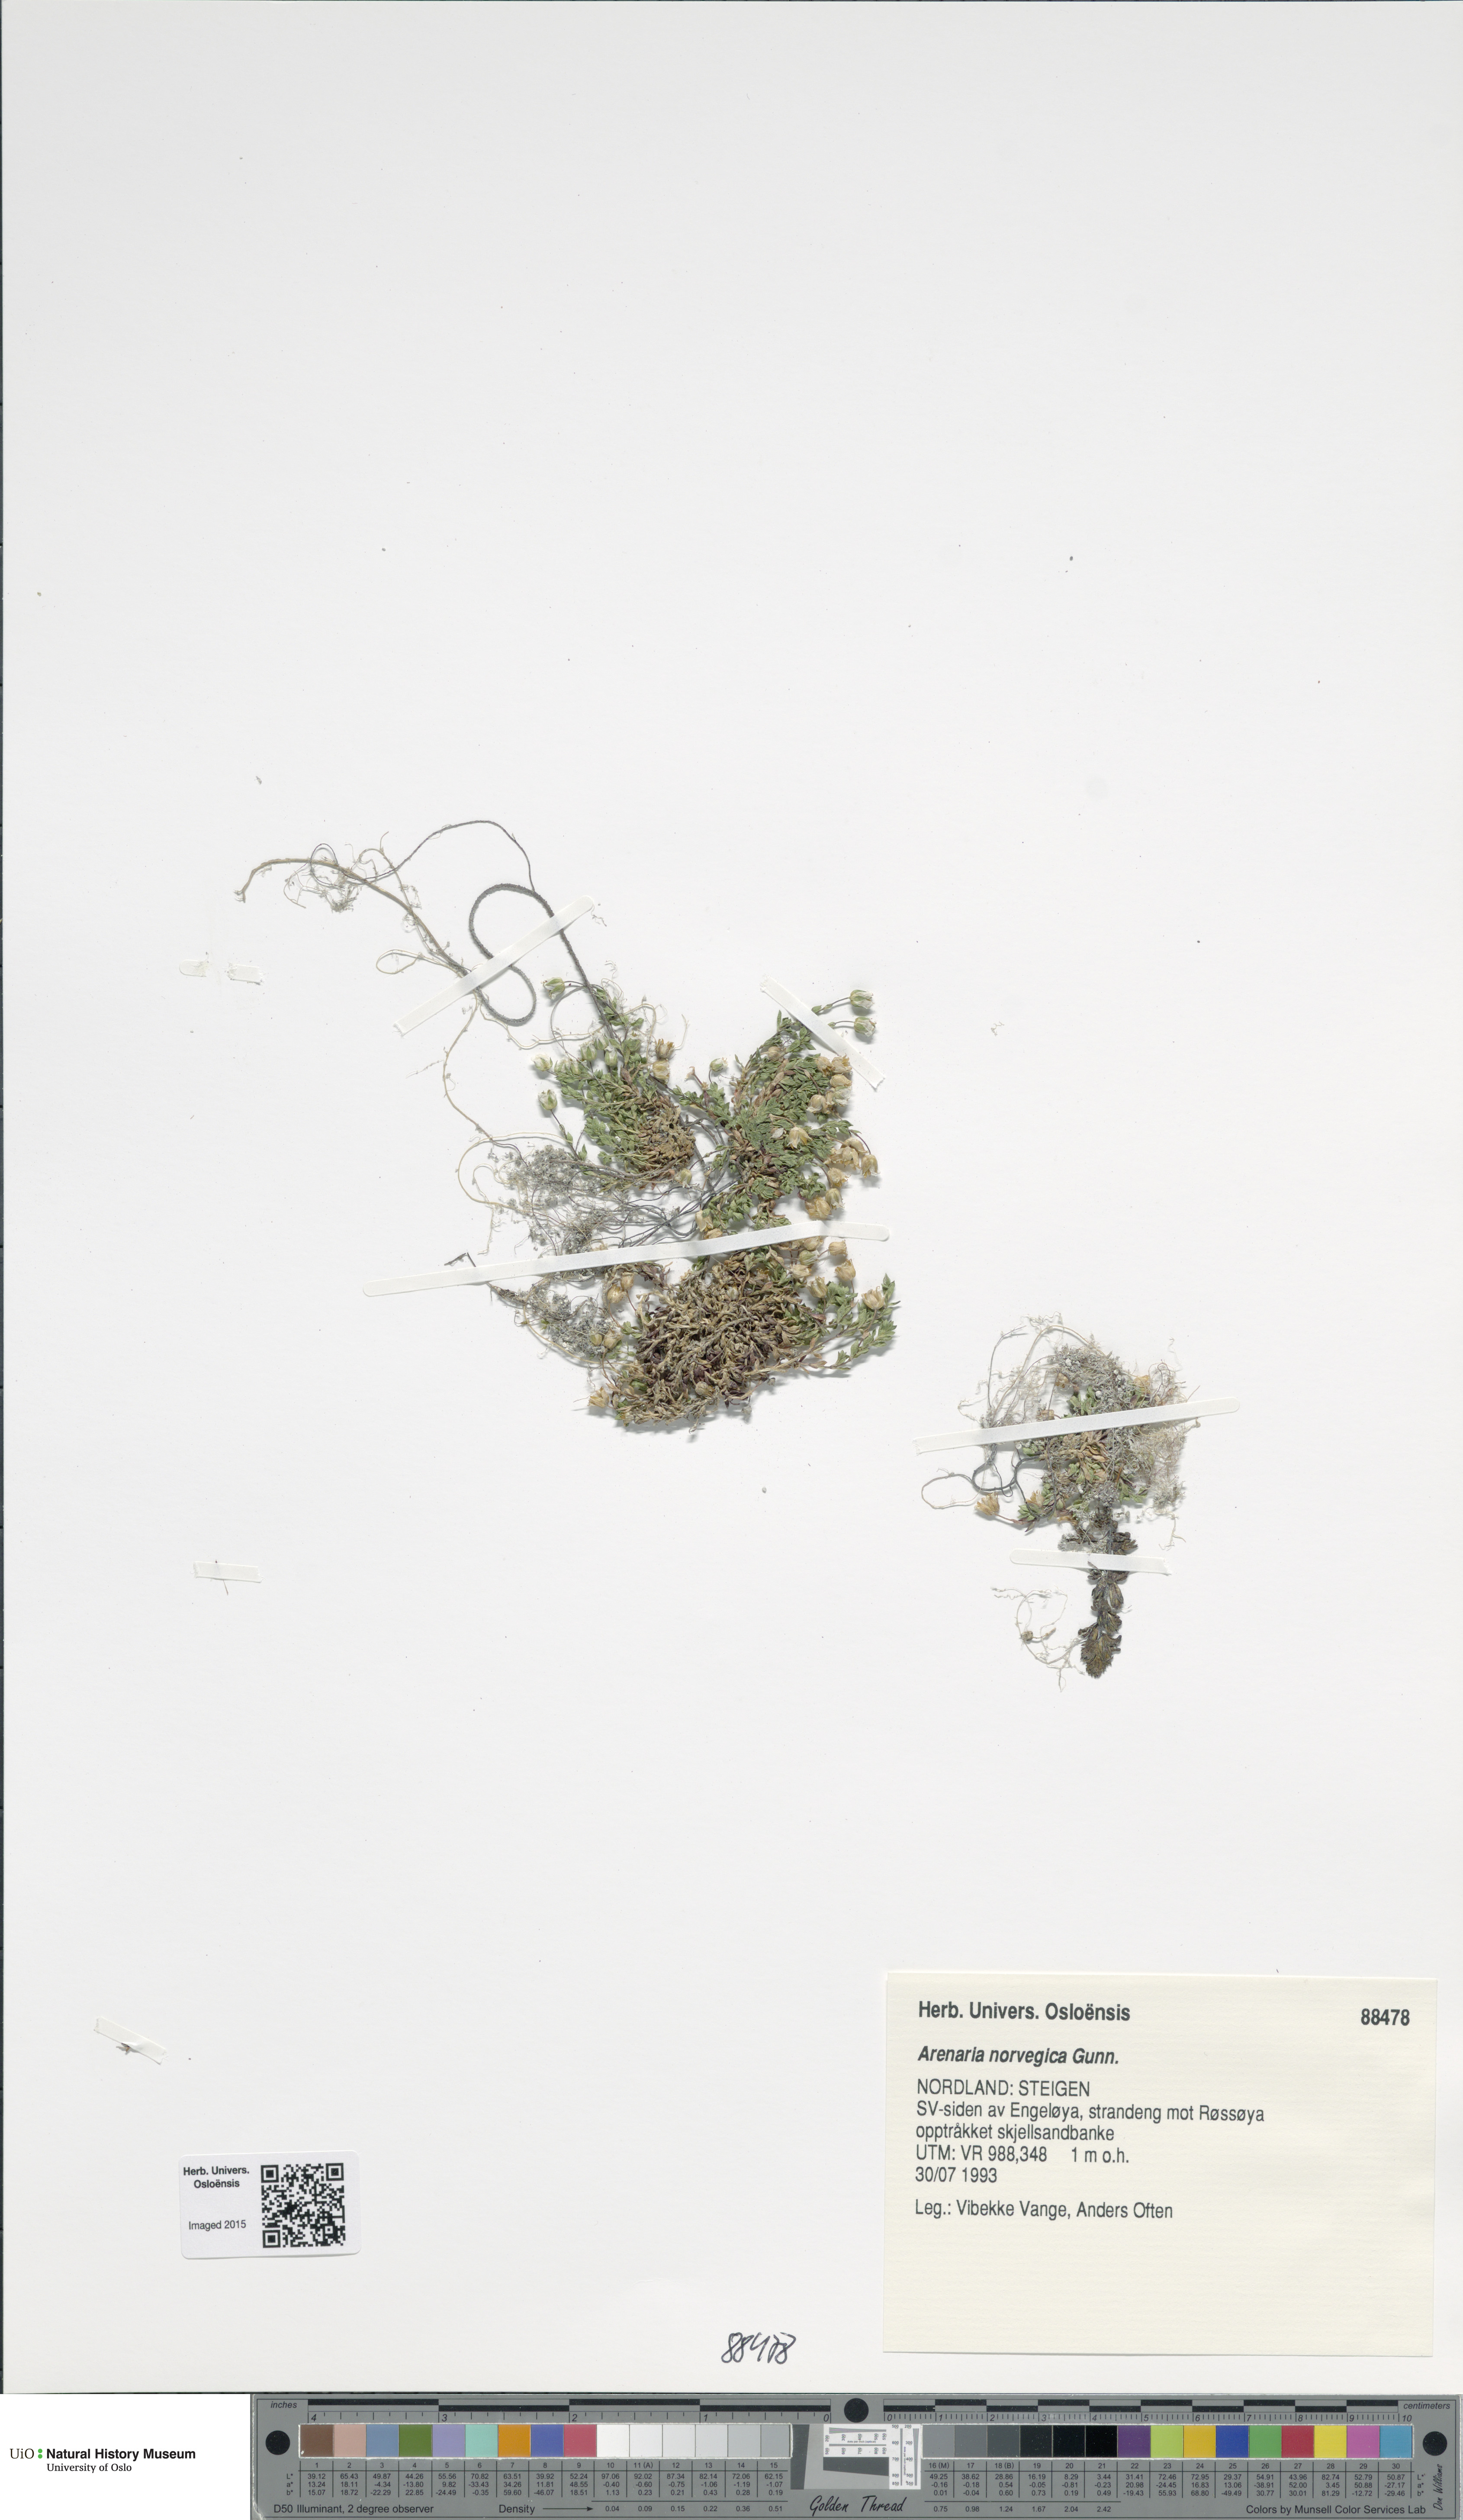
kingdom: Plantae
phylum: Tracheophyta
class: Magnoliopsida
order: Caryophyllales
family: Caryophyllaceae
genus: Arenaria
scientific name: Arenaria norvegica
